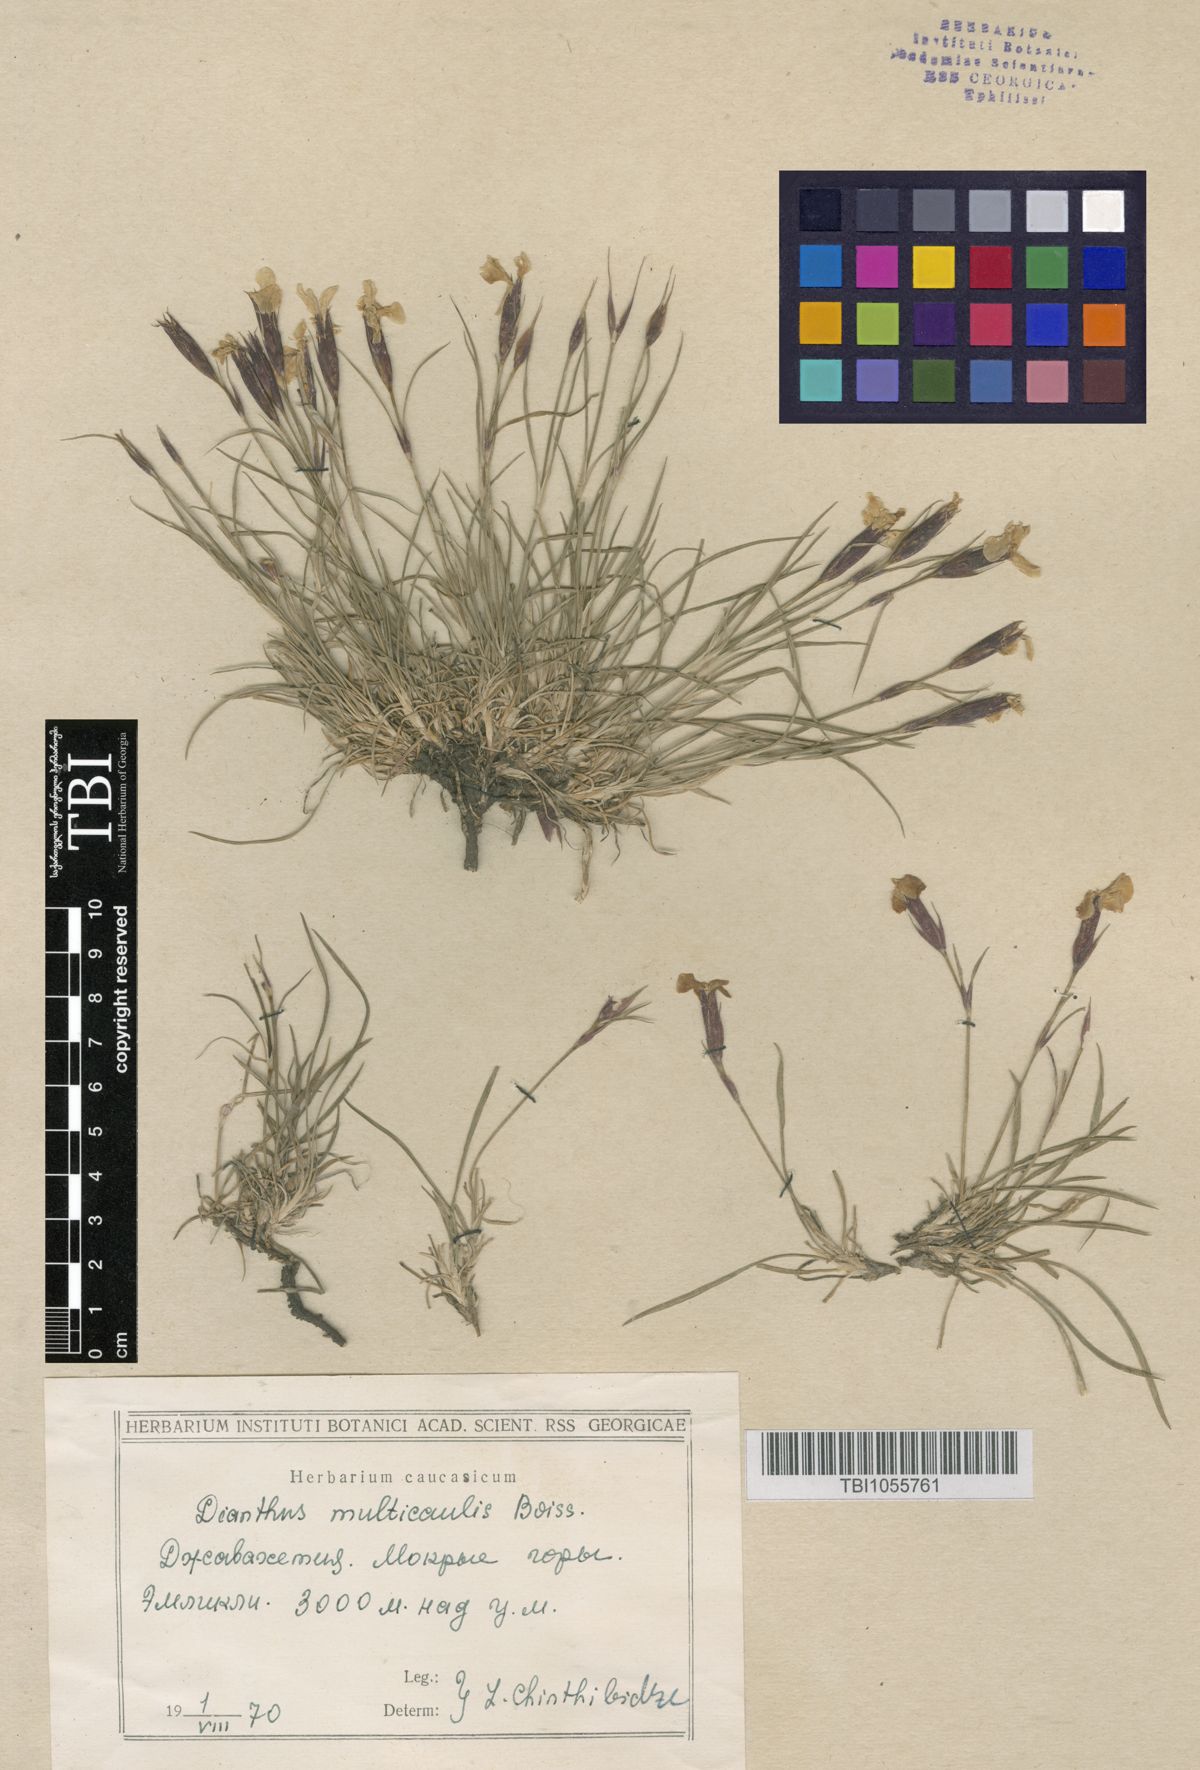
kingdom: Plantae
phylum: Tracheophyta
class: Magnoliopsida
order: Caryophyllales
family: Caryophyllaceae
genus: Dianthus
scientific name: Dianthus cretaceus
